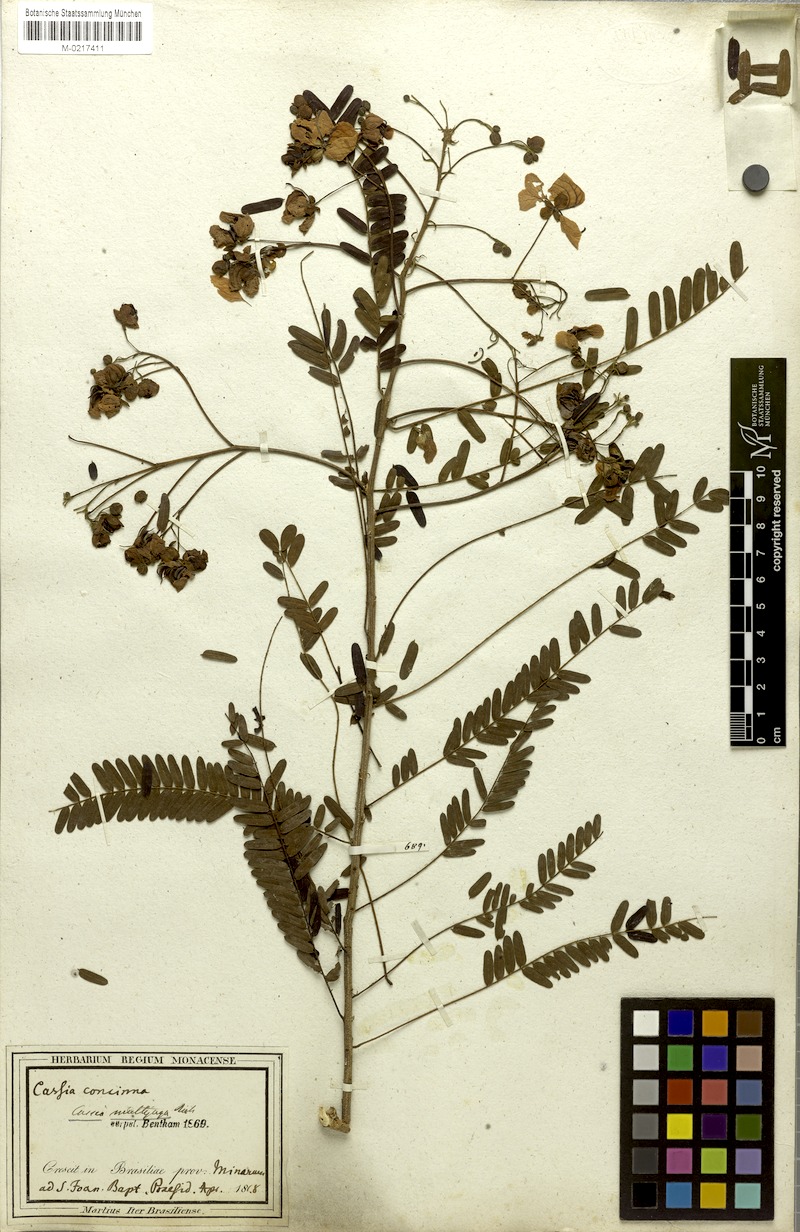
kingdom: Plantae
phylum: Tracheophyta
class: Magnoliopsida
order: Fabales
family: Fabaceae
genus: Chamaecrista
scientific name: Chamaecrista concinna
